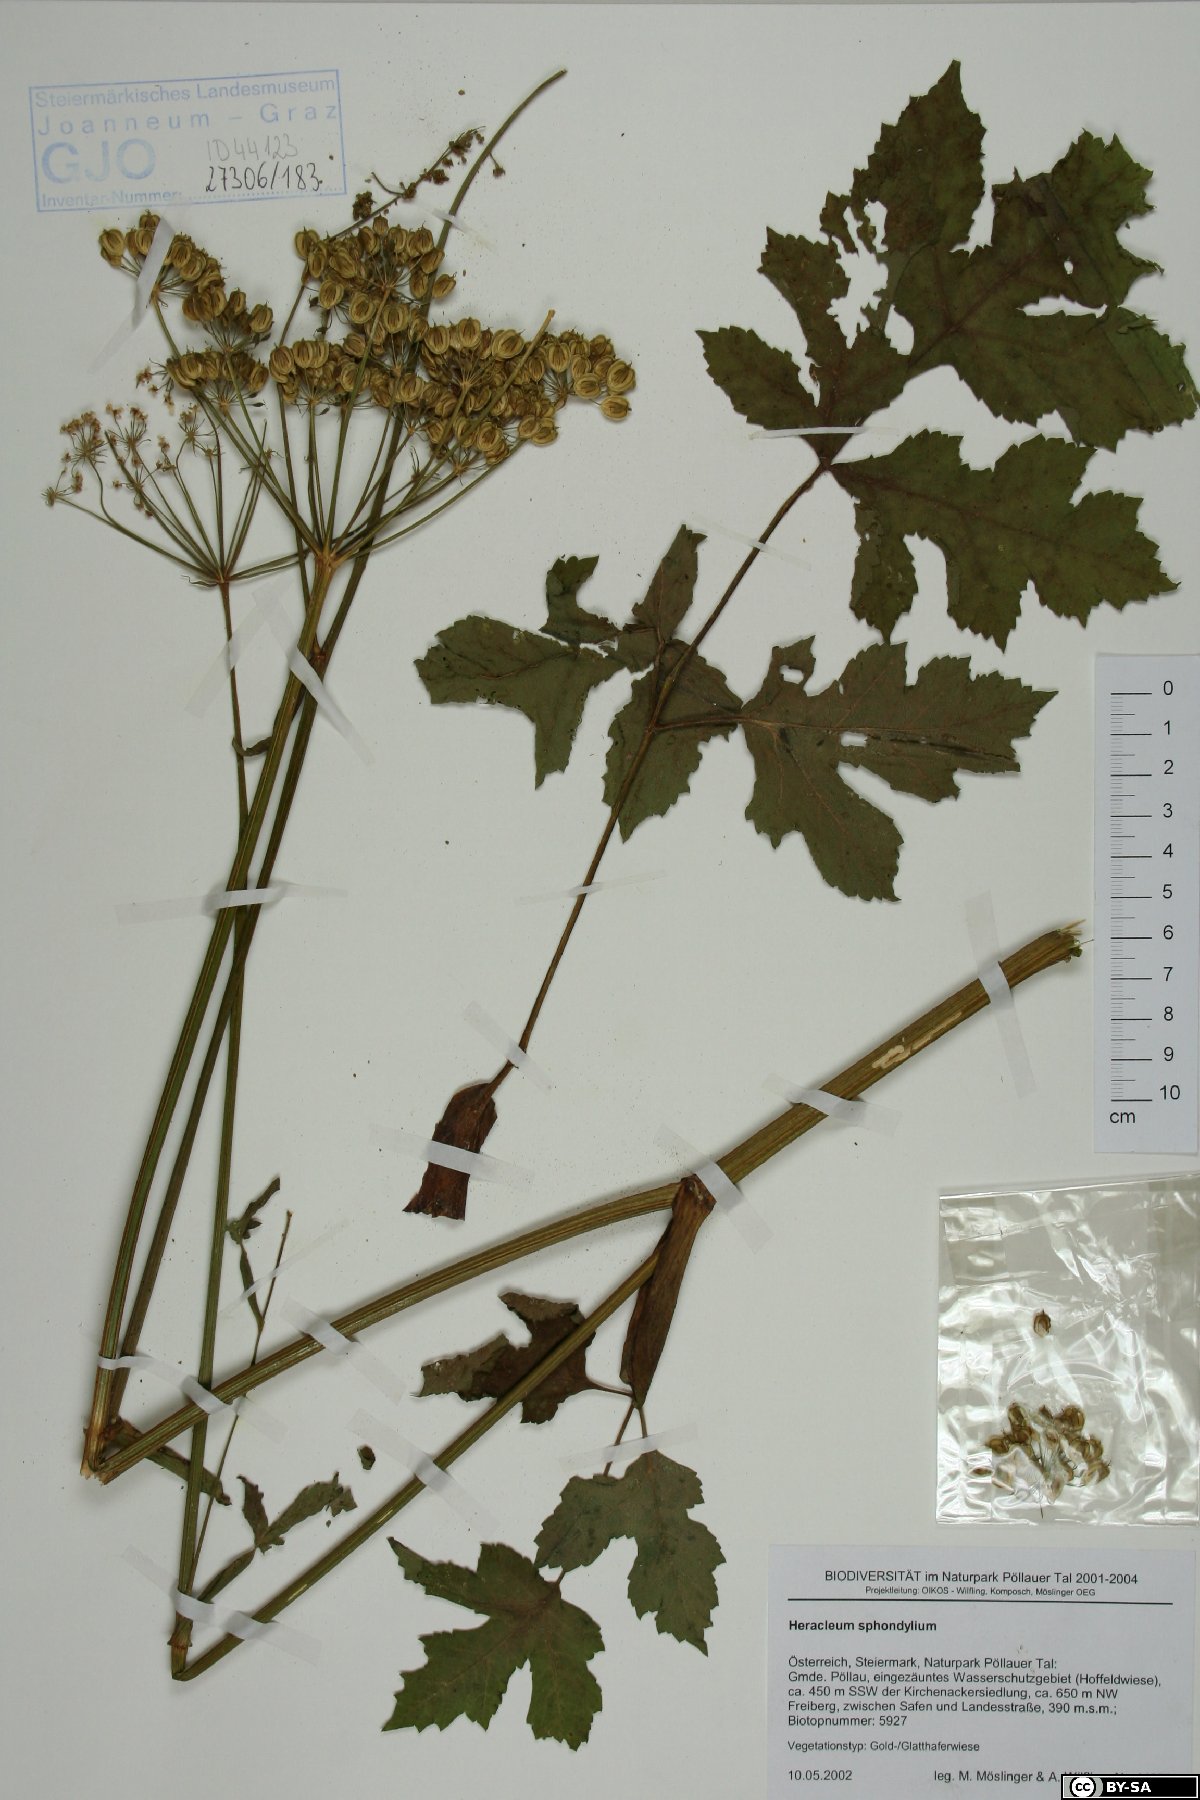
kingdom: Plantae
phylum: Tracheophyta
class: Magnoliopsida
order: Apiales
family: Apiaceae
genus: Heracleum
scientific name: Heracleum sphondylium
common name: Hogweed
